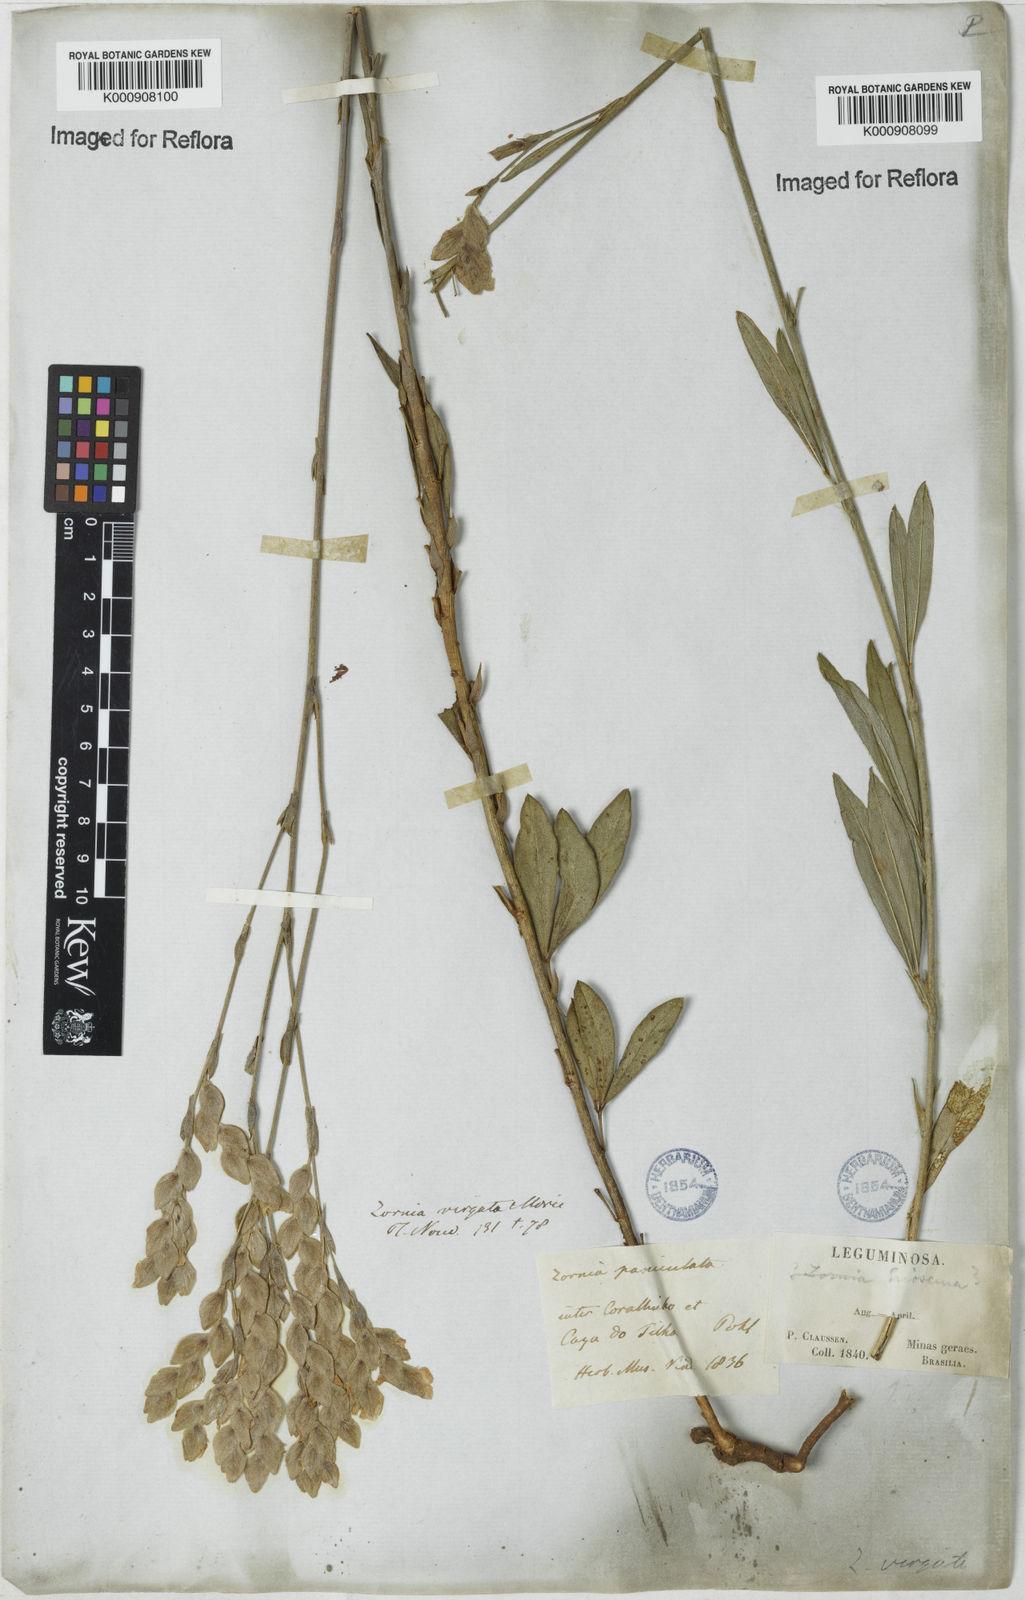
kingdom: Plantae
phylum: Tracheophyta
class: Magnoliopsida
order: Fabales
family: Fabaceae
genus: Zornia
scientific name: Zornia virgata
